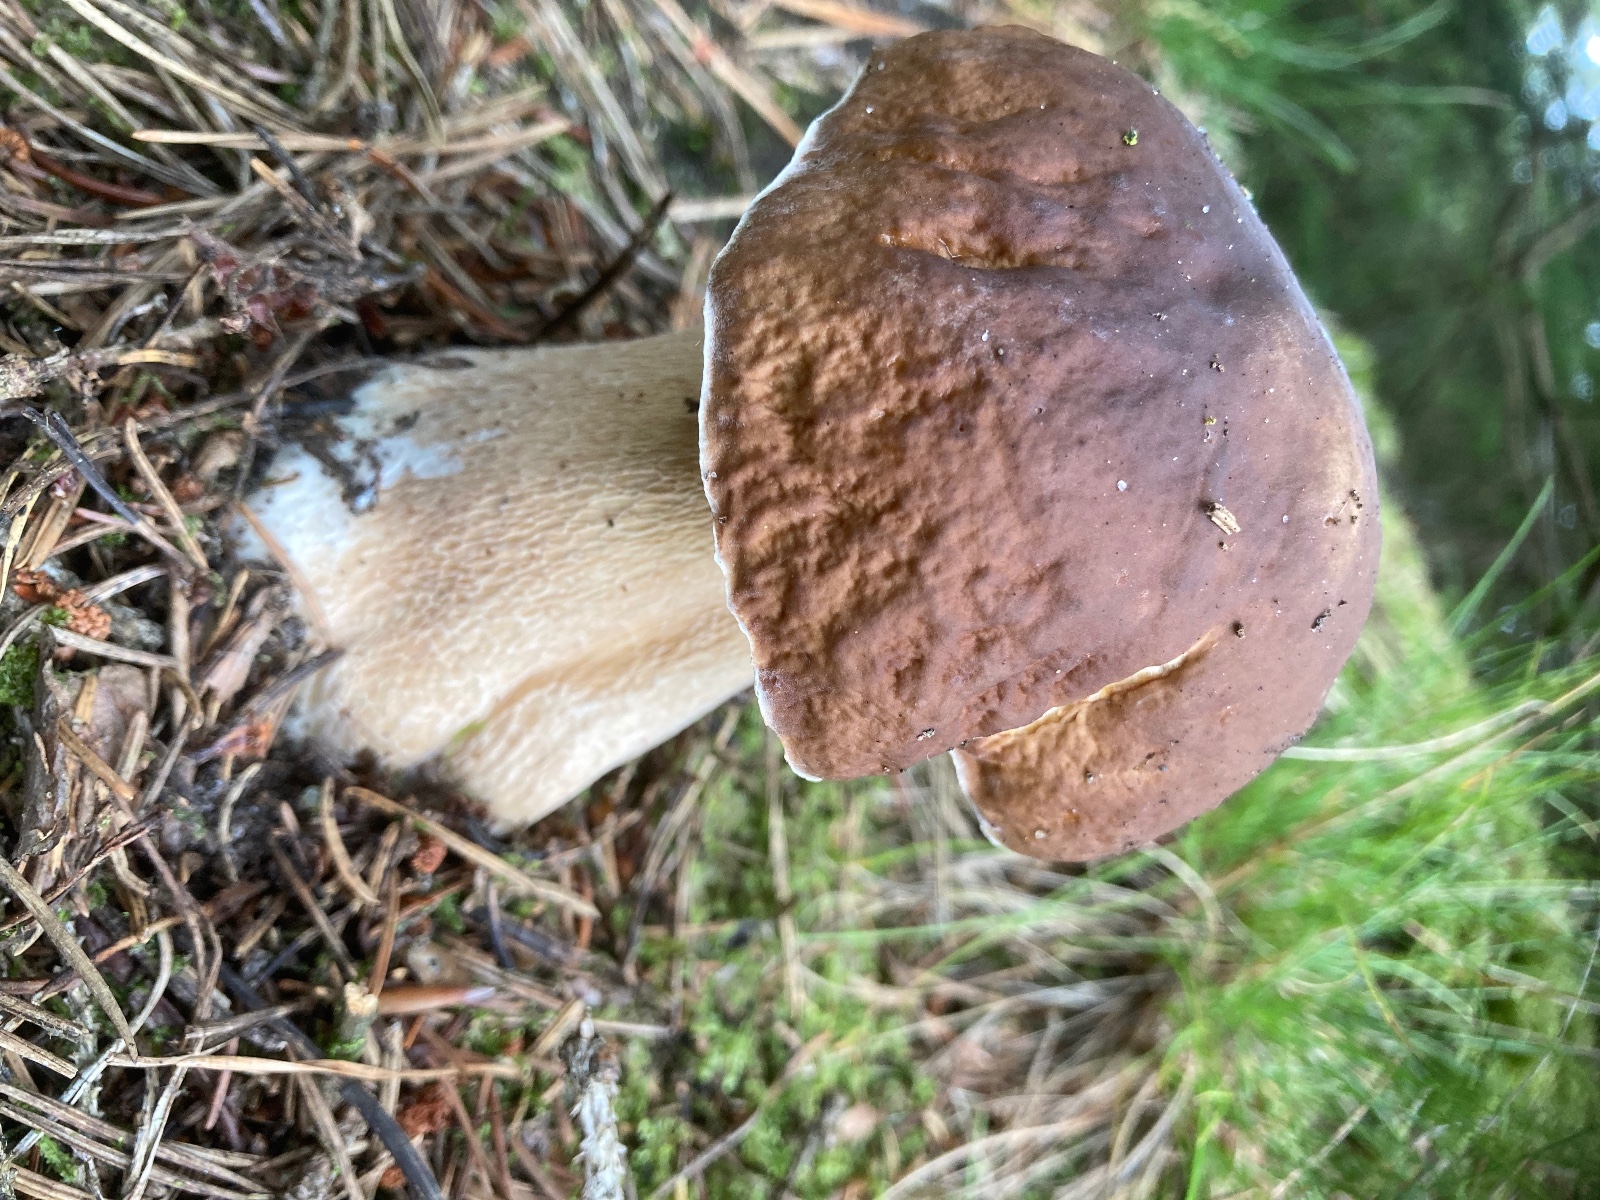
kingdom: Fungi
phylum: Basidiomycota
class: Agaricomycetes
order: Boletales
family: Boletaceae
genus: Boletus
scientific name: Boletus edulis
